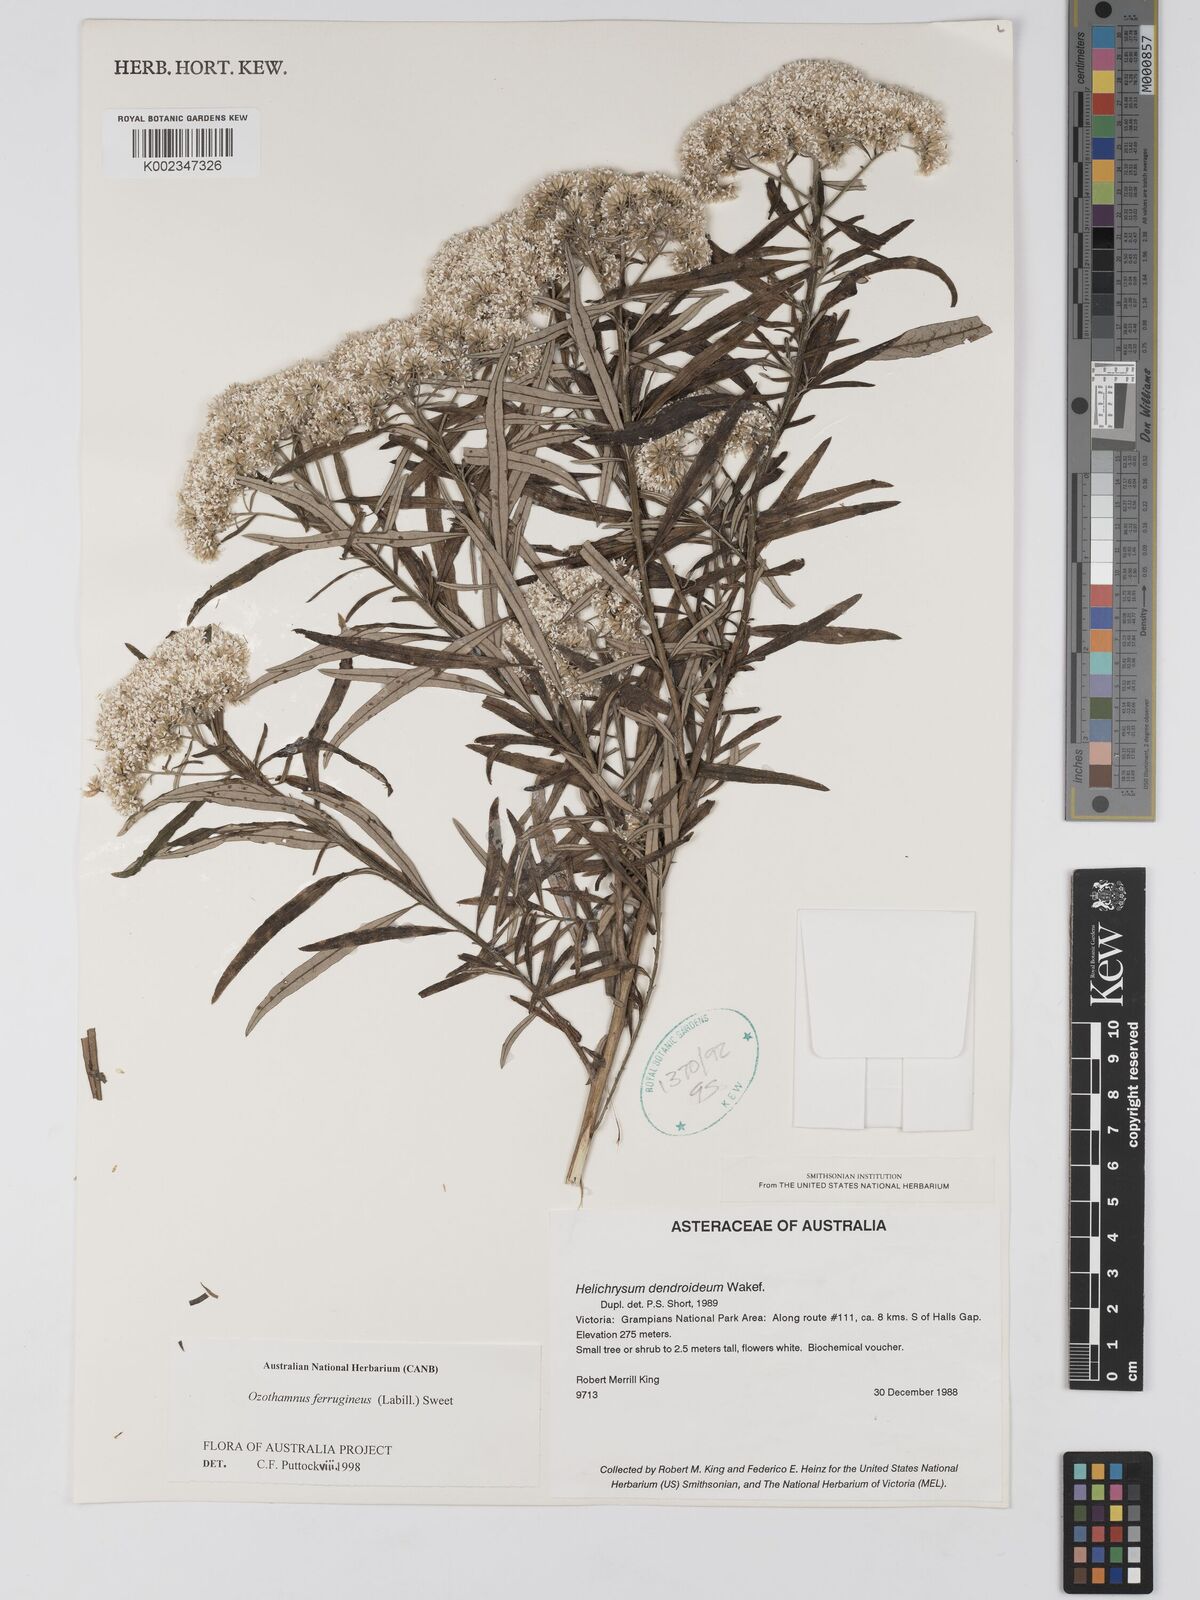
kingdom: Plantae
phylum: Tracheophyta
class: Magnoliopsida
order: Asterales
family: Asteraceae
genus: Ozothamnus
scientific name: Ozothamnus ferrugineus
